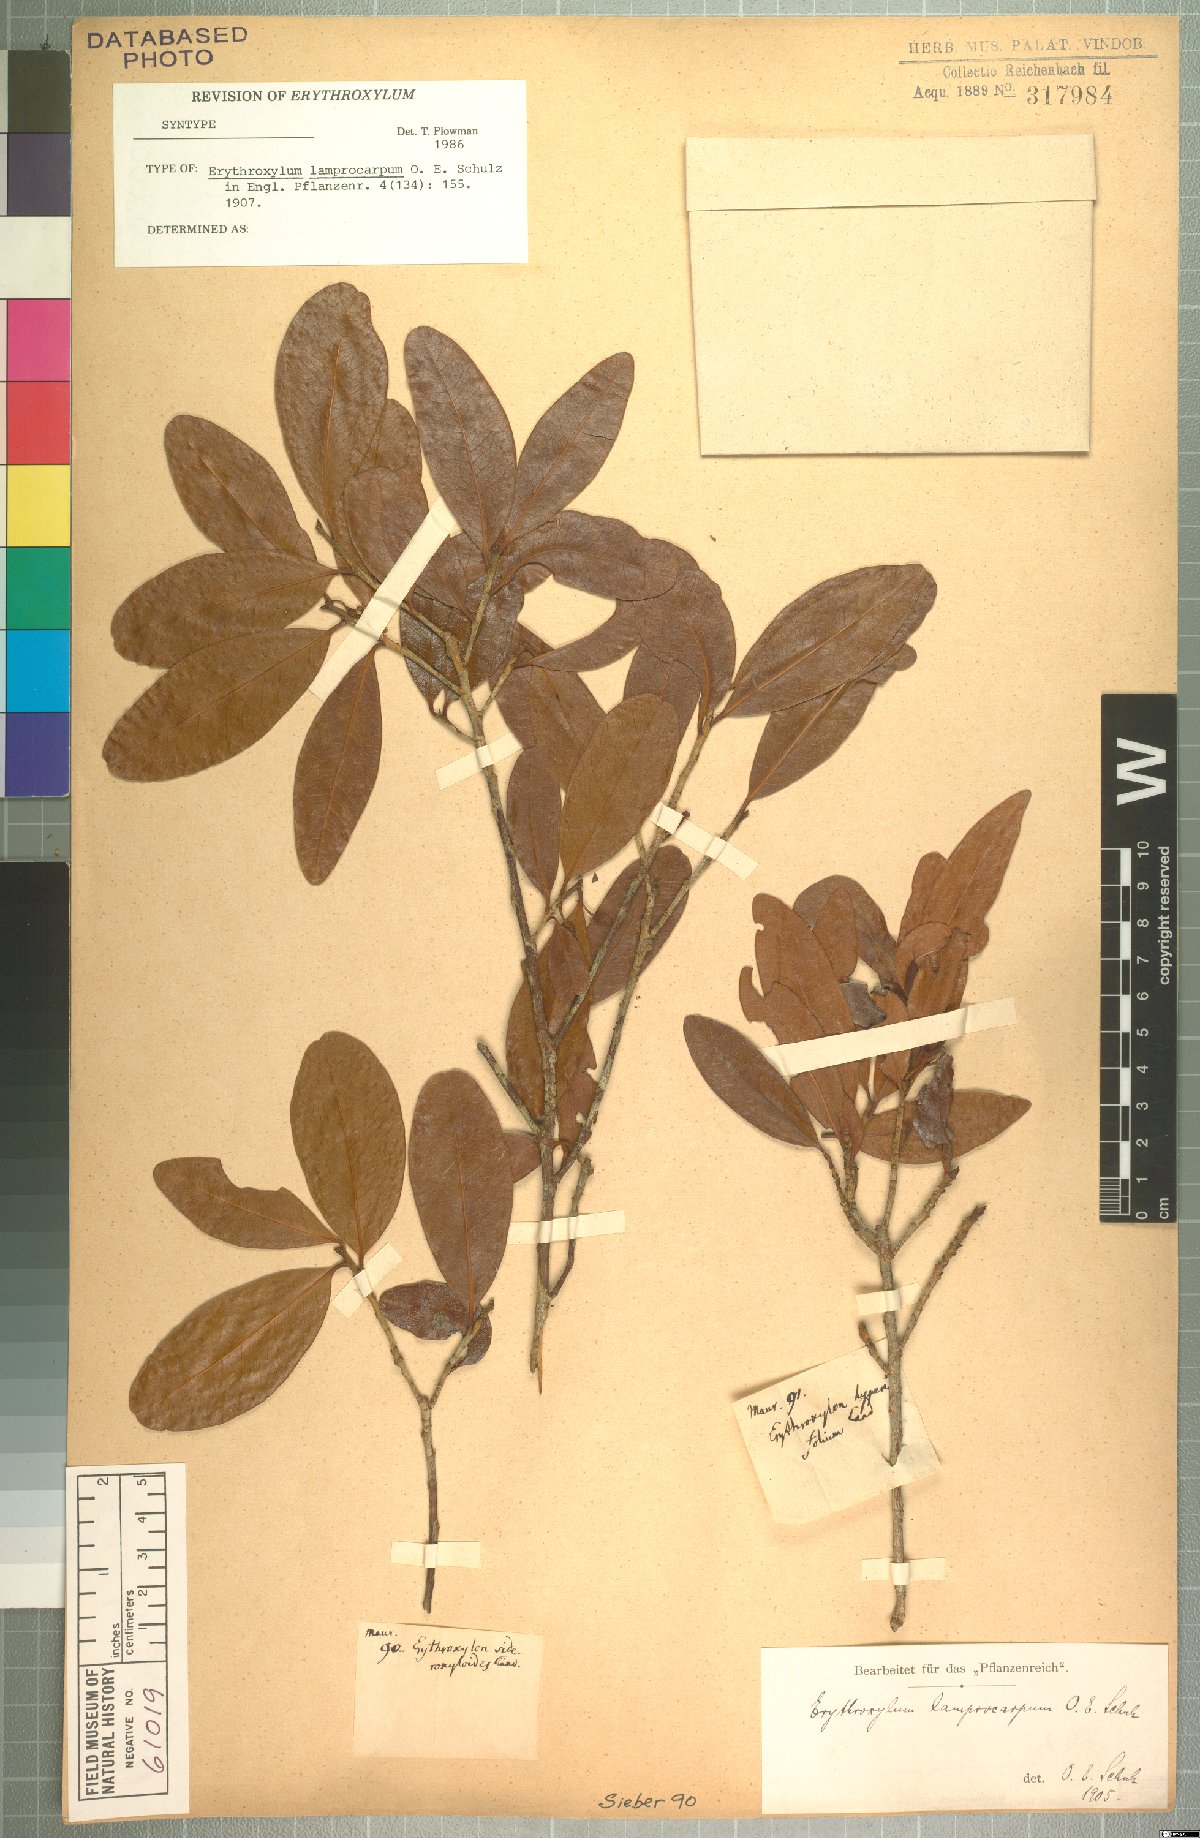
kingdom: Plantae
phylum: Tracheophyta
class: Magnoliopsida
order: Malpighiales
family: Erythroxylaceae
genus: Erythroxylum
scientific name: Erythroxylum sideroxyloides
